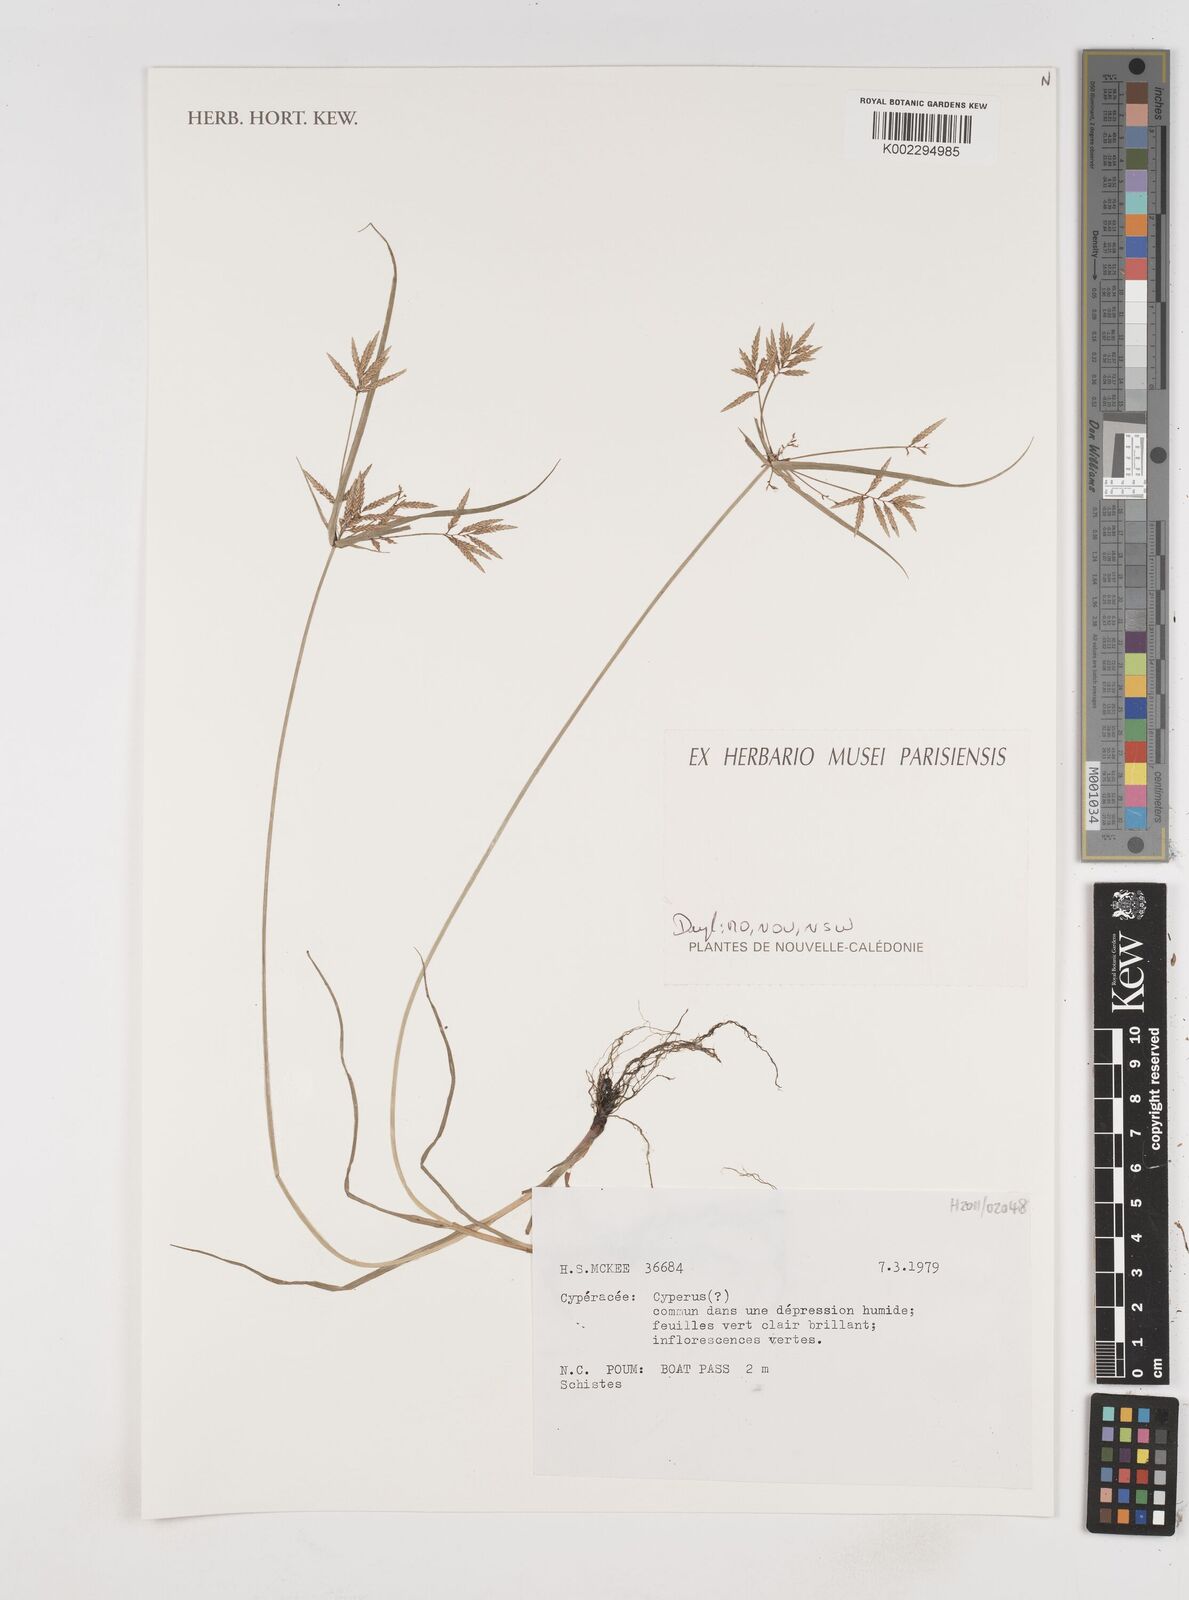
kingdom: Plantae
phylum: Tracheophyta
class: Liliopsida
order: Poales
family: Cyperaceae
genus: Cyperus
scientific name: Cyperus
